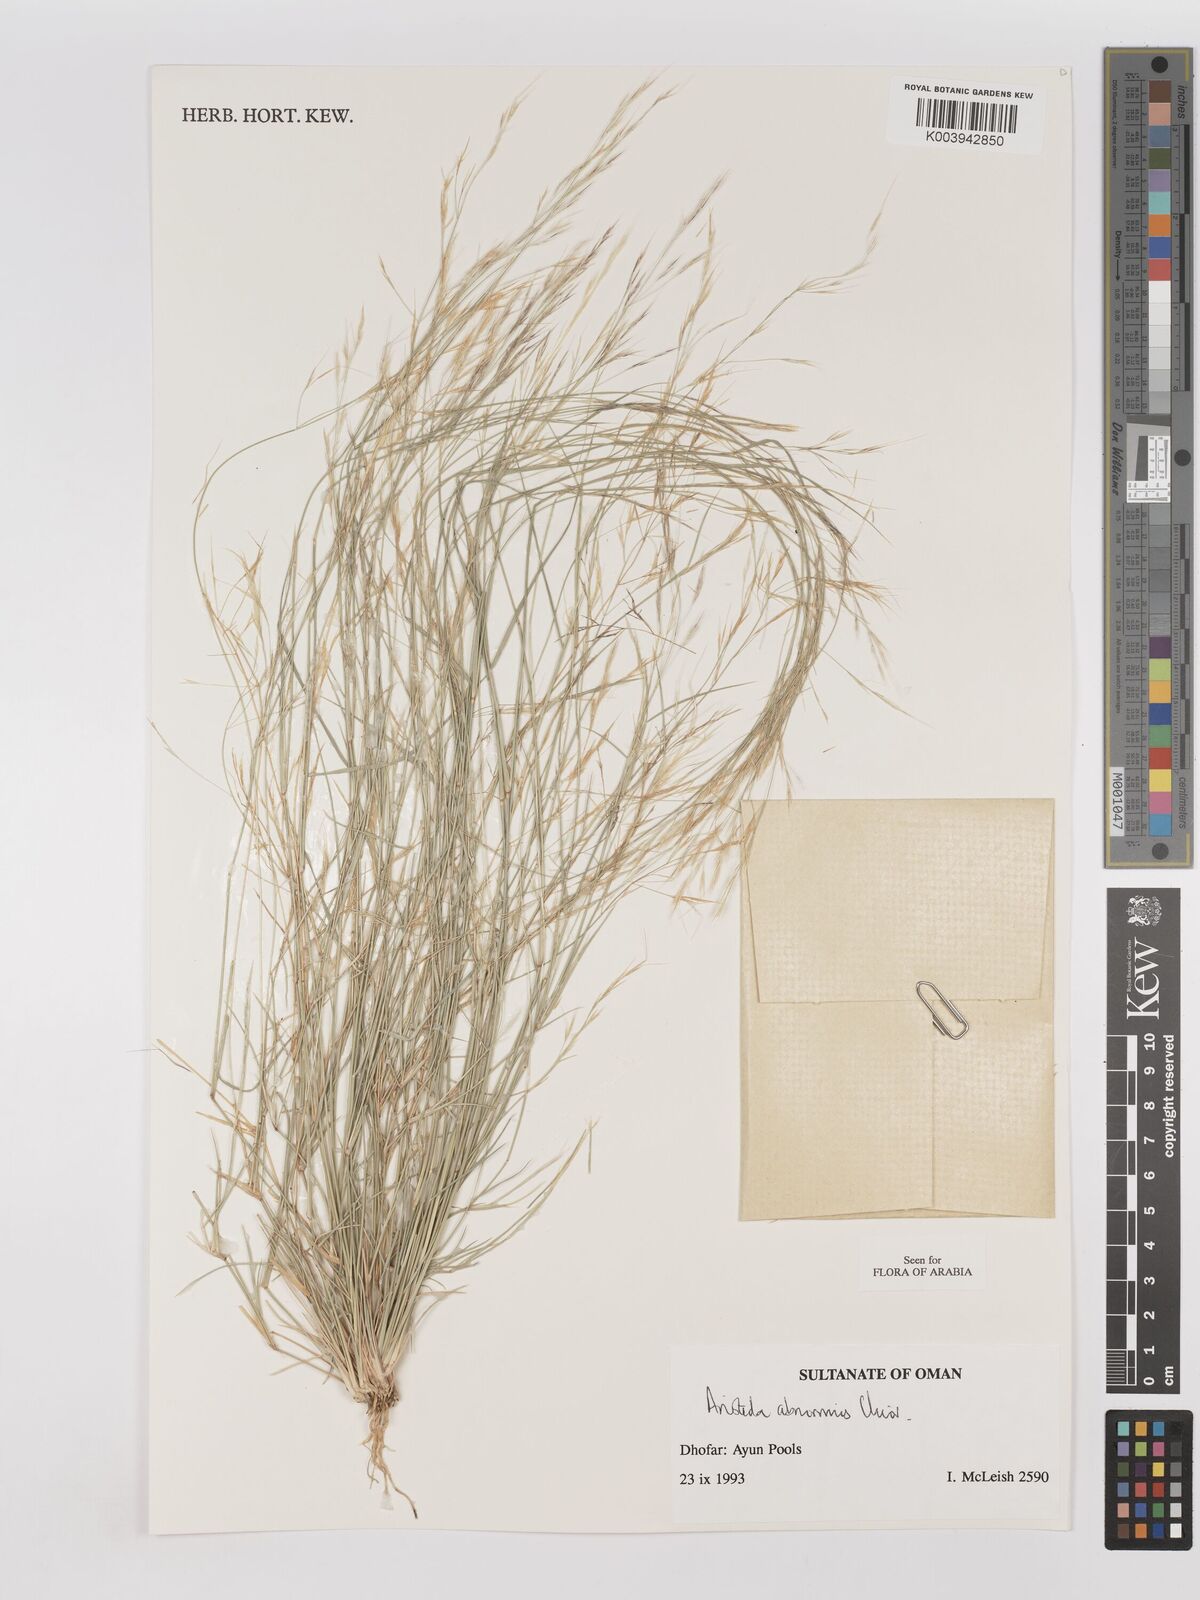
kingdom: Plantae
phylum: Tracheophyta
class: Liliopsida
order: Poales
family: Poaceae
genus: Aristida
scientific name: Aristida abnormis
